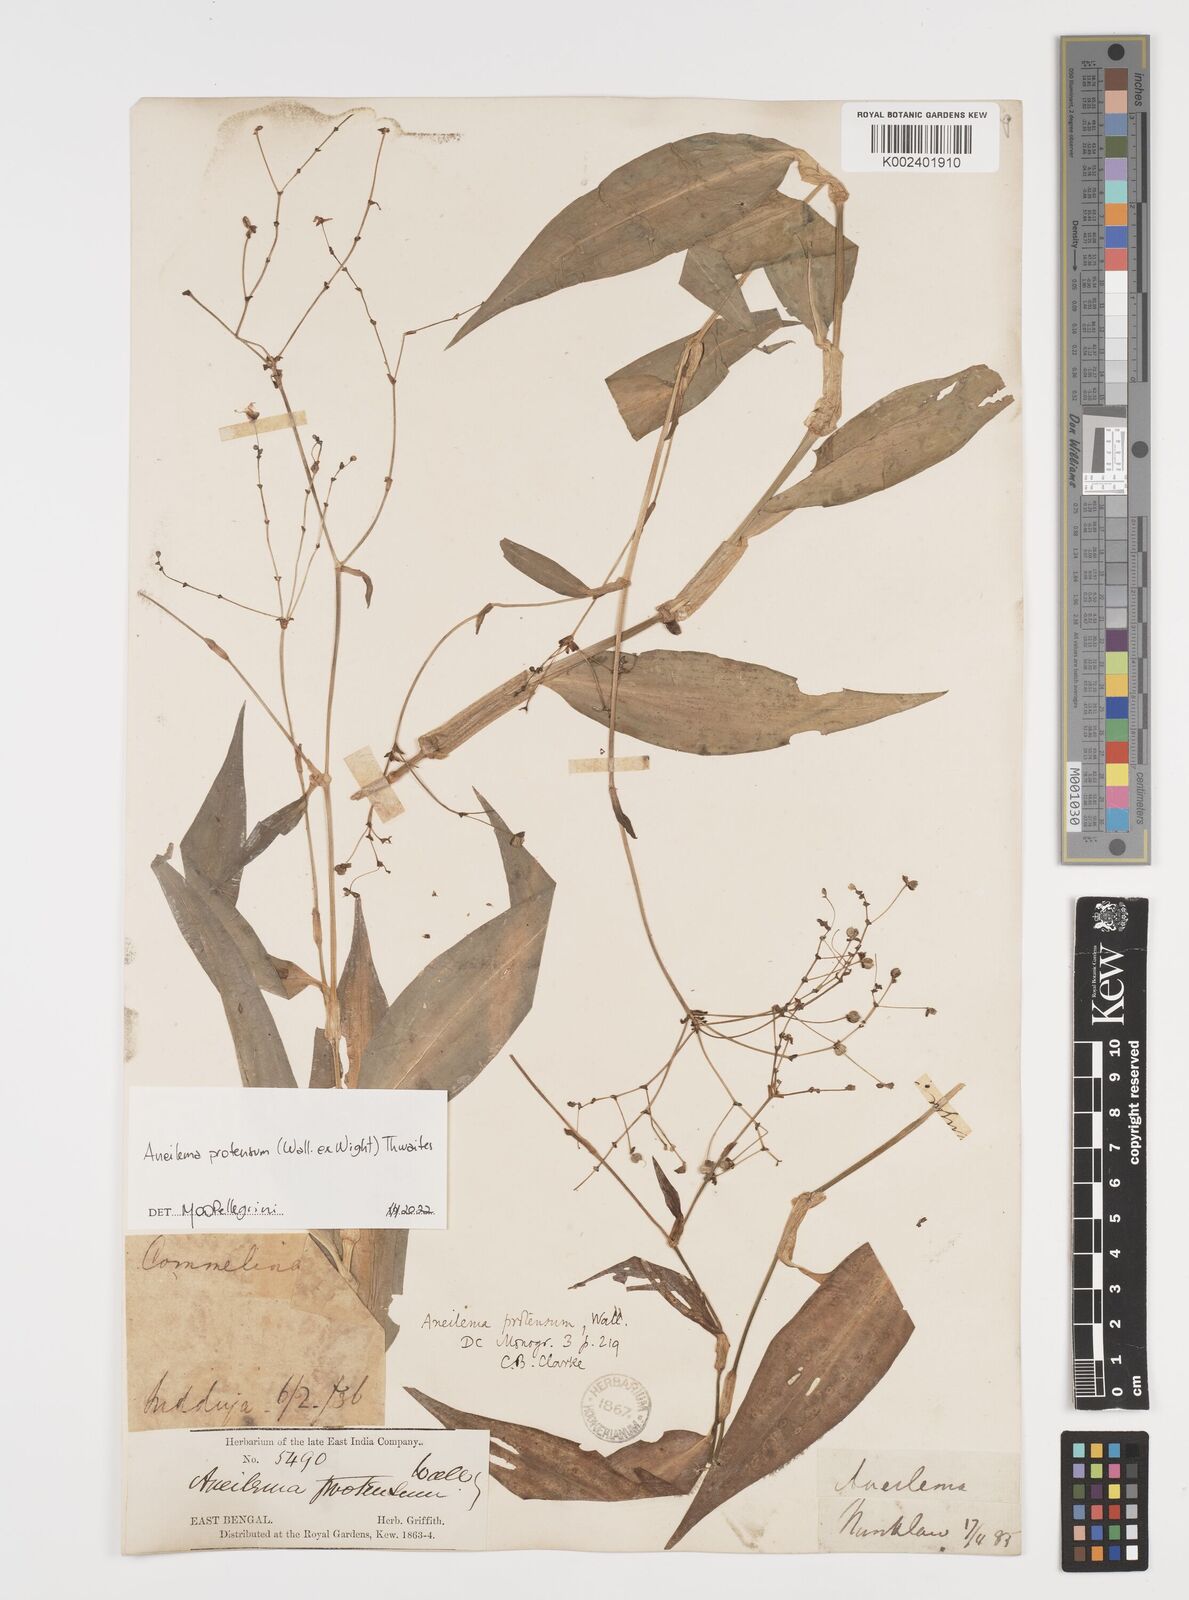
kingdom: Plantae
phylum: Tracheophyta
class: Liliopsida
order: Commelinales
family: Commelinaceae
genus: Rhopalephora
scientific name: Rhopalephora
